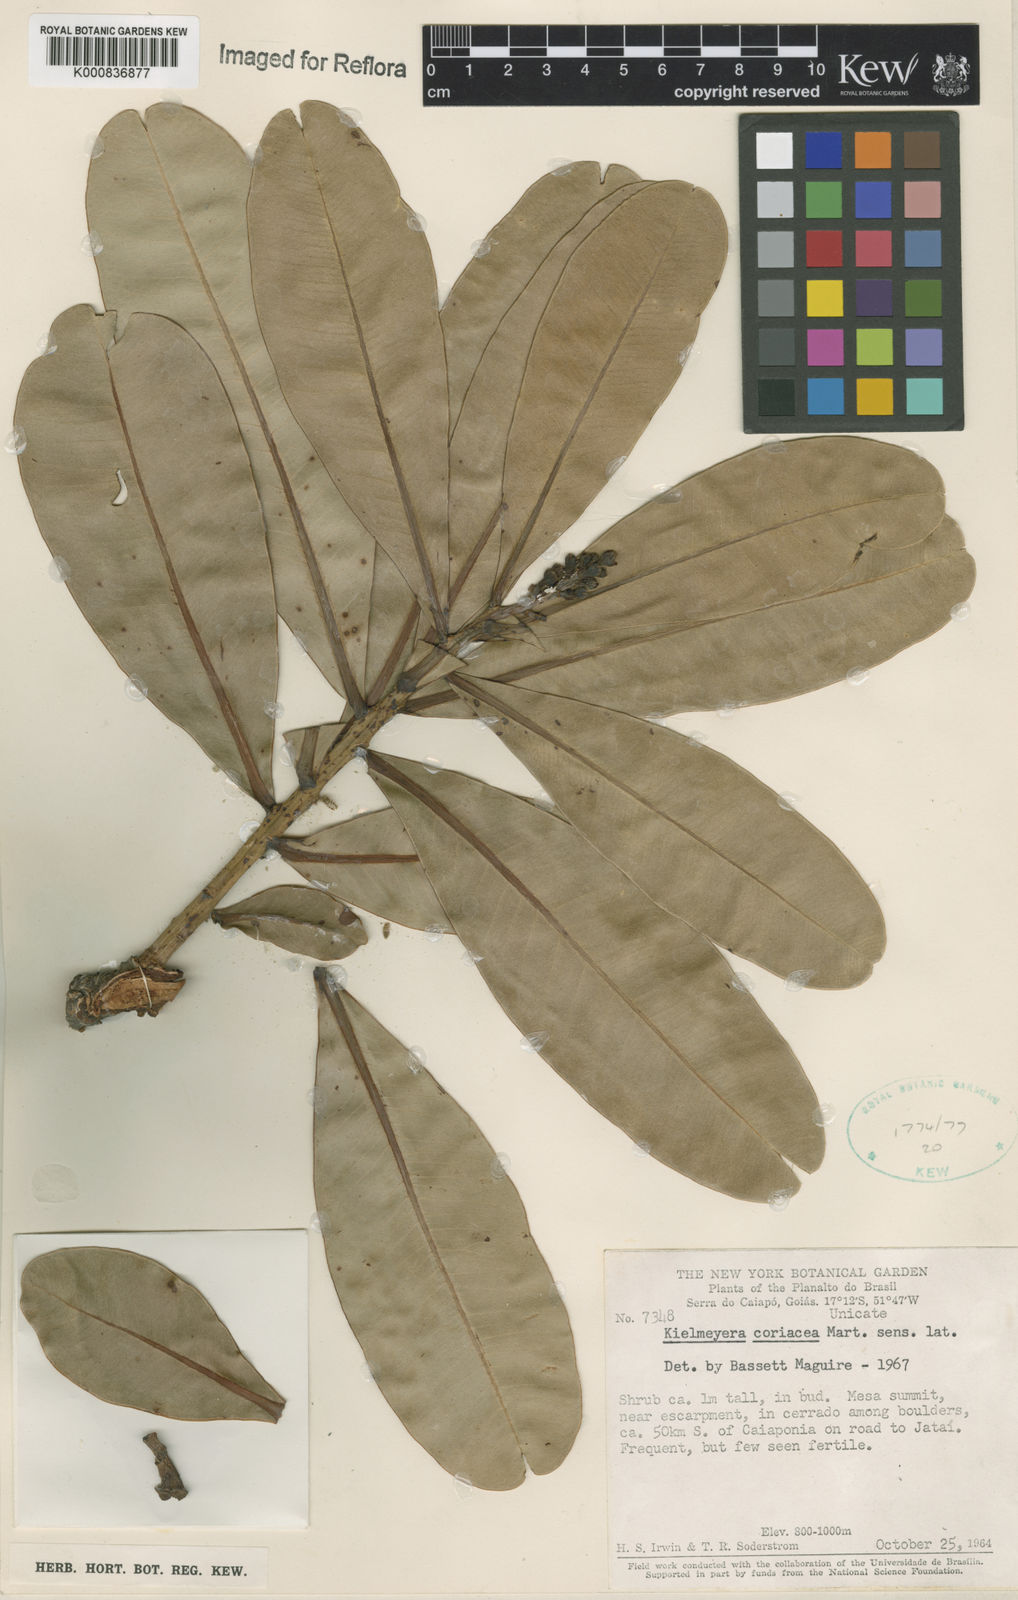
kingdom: Plantae
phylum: Tracheophyta
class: Magnoliopsida
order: Malpighiales
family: Calophyllaceae
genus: Kielmeyera
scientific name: Kielmeyera coriacea
